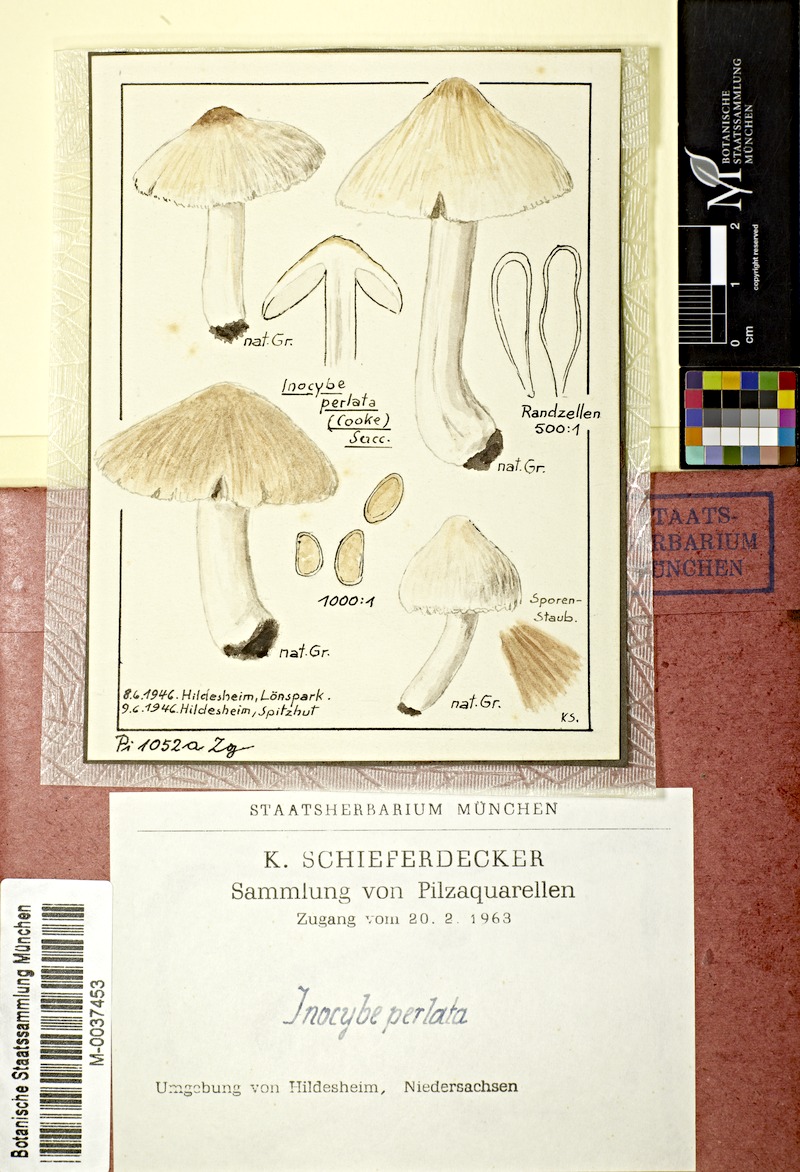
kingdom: Fungi
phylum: Basidiomycota
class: Agaricomycetes
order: Agaricales
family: Inocybaceae
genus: Pseudosperma
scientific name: Pseudosperma rimosum
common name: Split fibrecap
